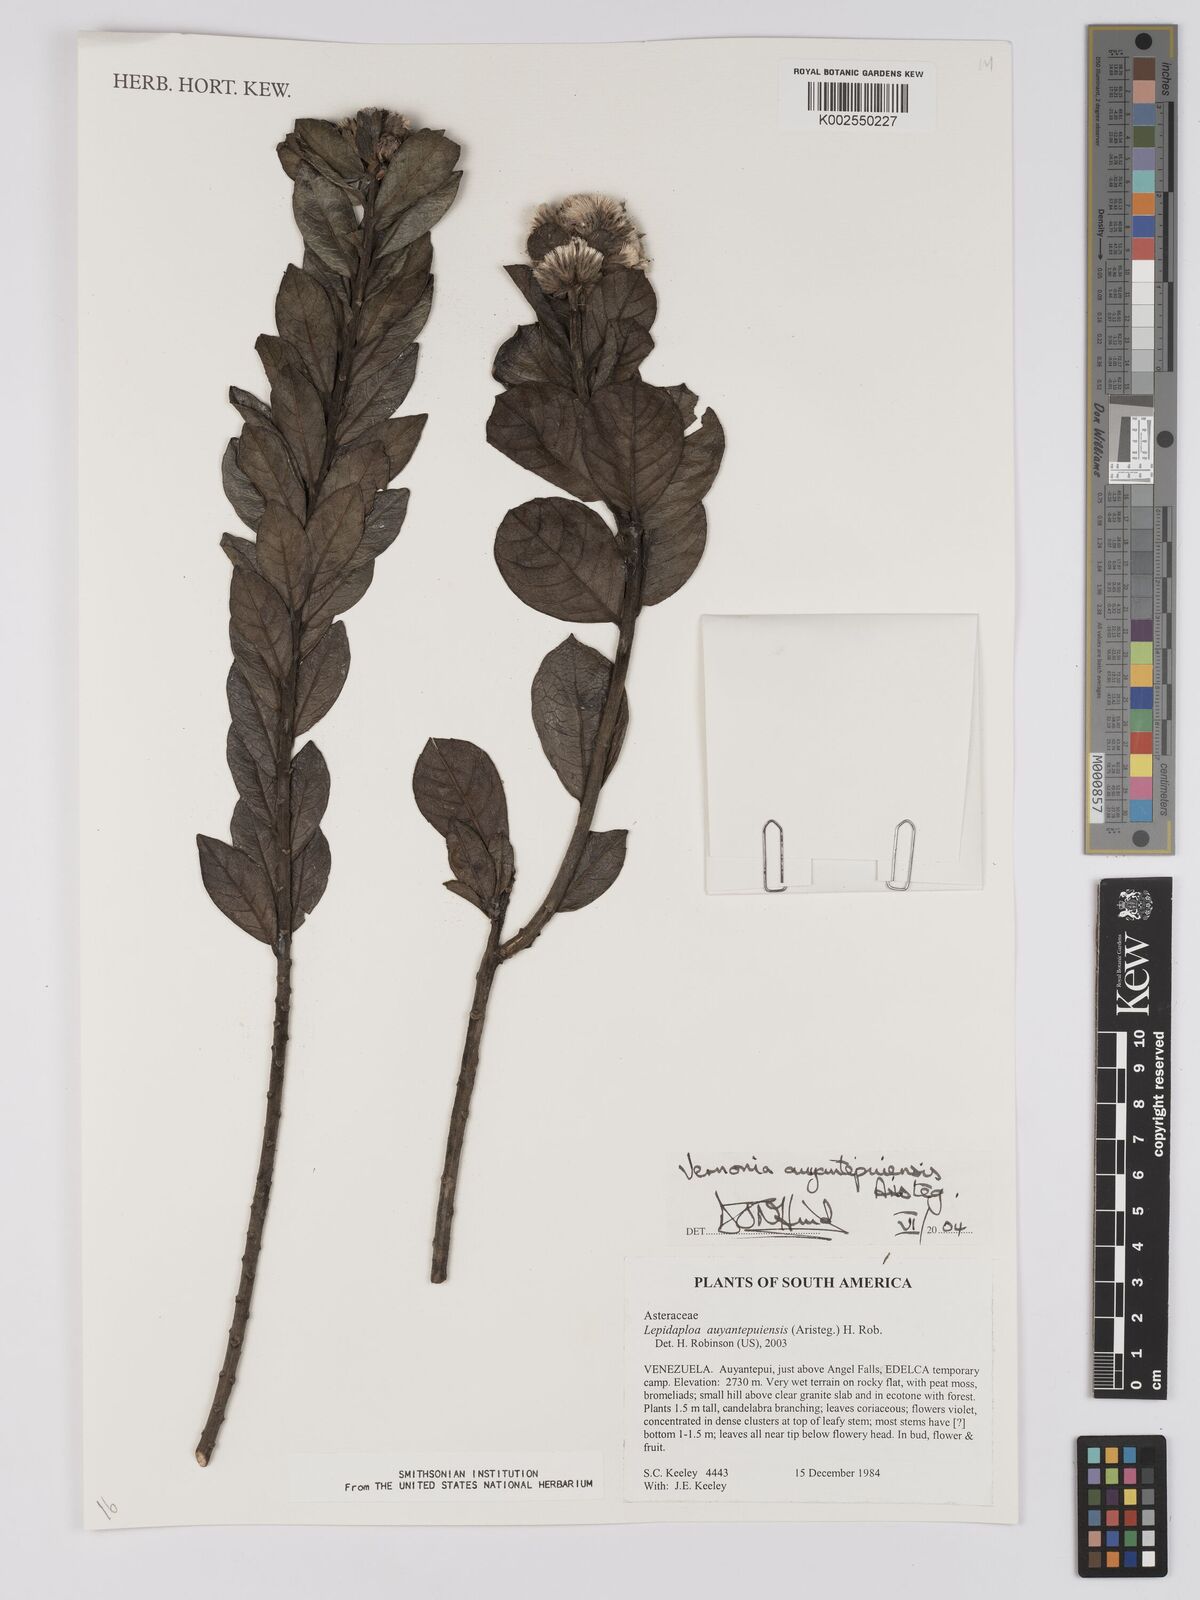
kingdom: Plantae
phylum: Tracheophyta
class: Magnoliopsida
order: Asterales
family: Asteraceae
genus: Lepidaploa
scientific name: Lepidaploa ehretiifolia
